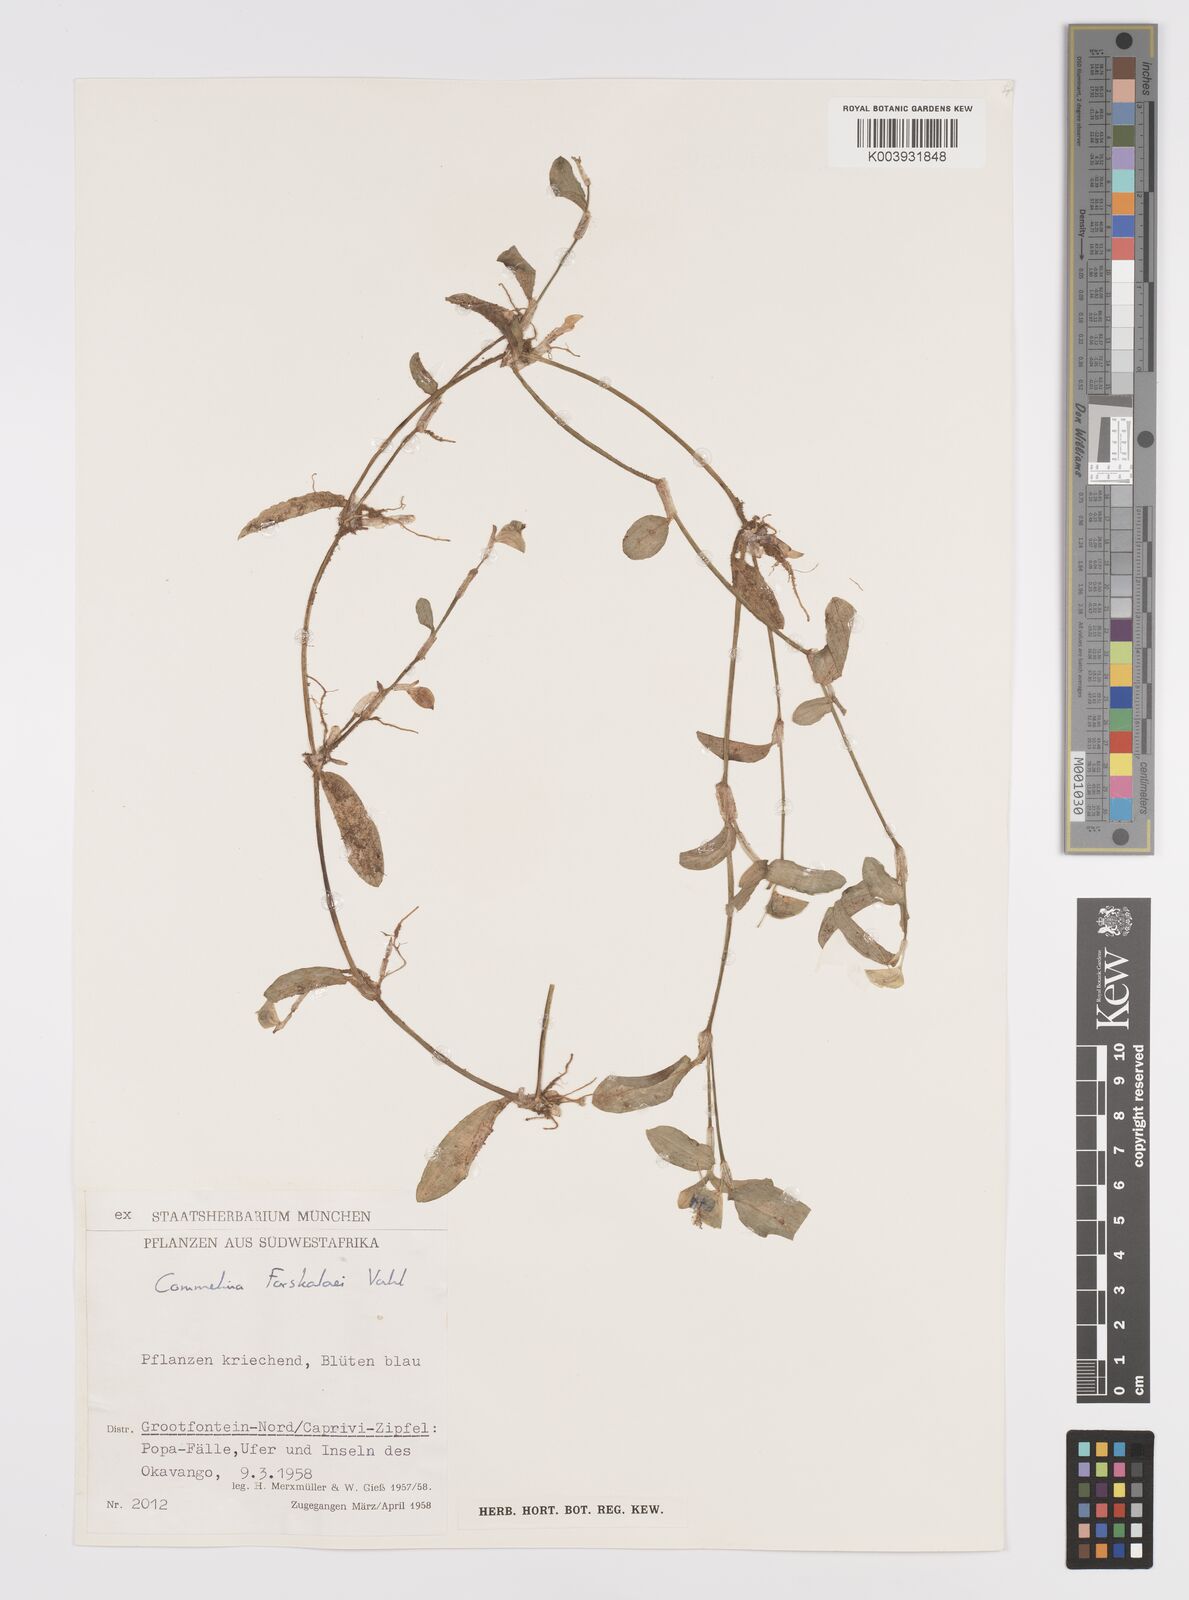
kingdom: Plantae
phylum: Tracheophyta
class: Liliopsida
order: Commelinales
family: Commelinaceae
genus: Commelina
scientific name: Commelina forskaolii
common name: Rat's ear
